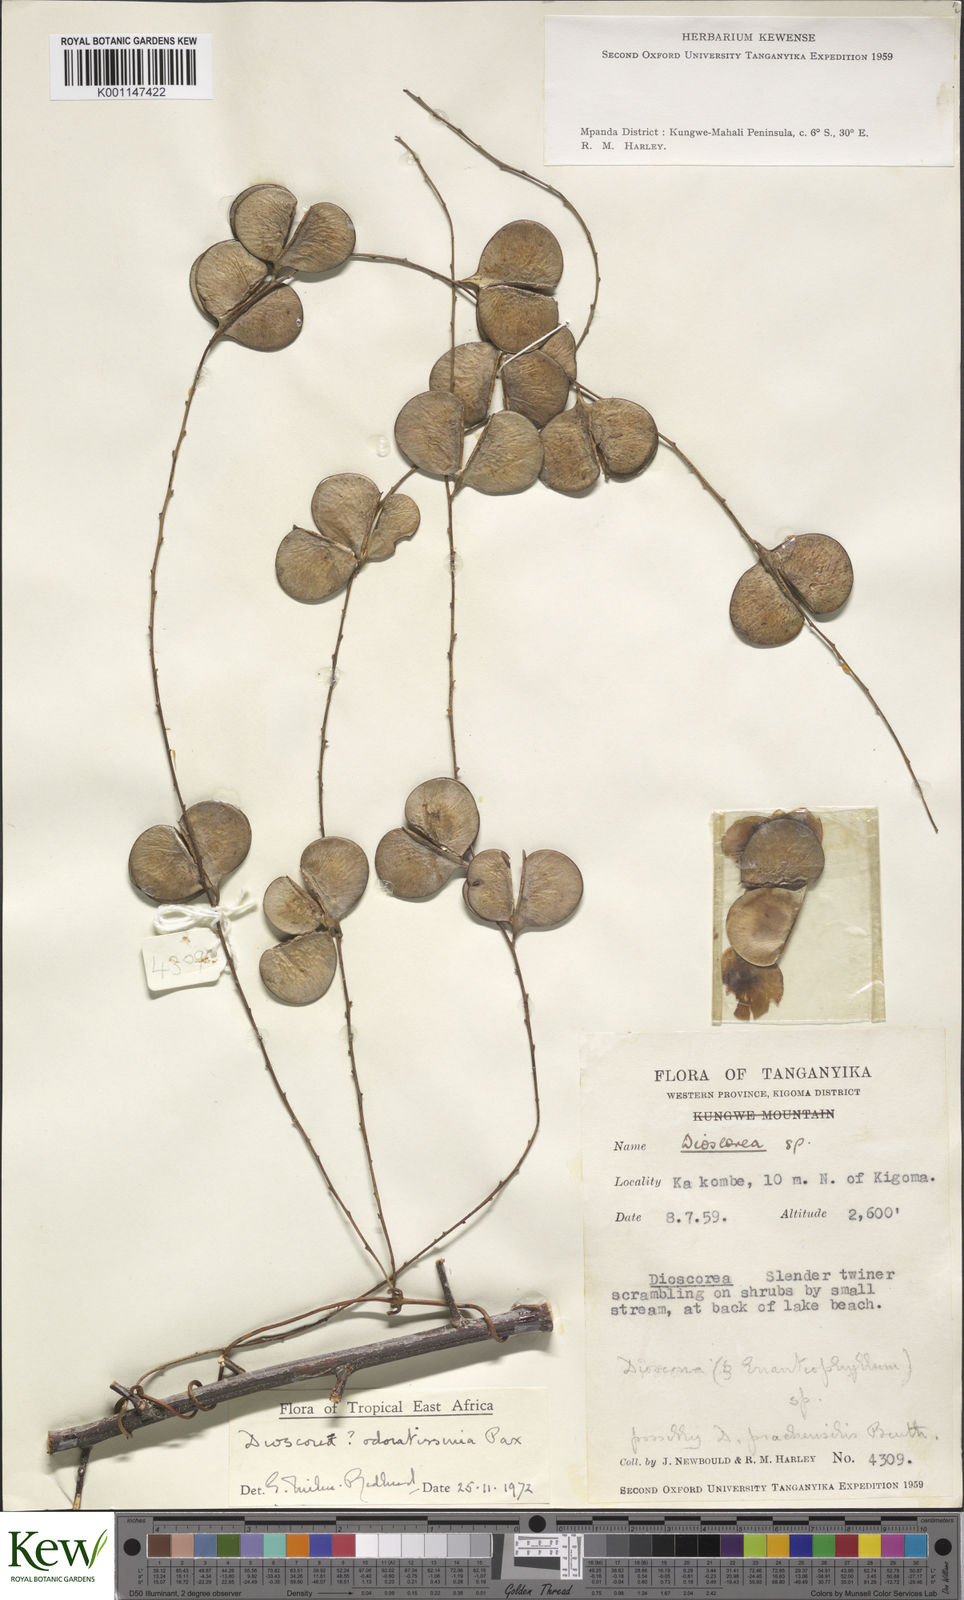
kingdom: Plantae
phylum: Tracheophyta
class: Liliopsida
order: Dioscoreales
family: Dioscoreaceae
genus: Dioscorea
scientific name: Dioscorea praehensilis
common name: Bush yam
